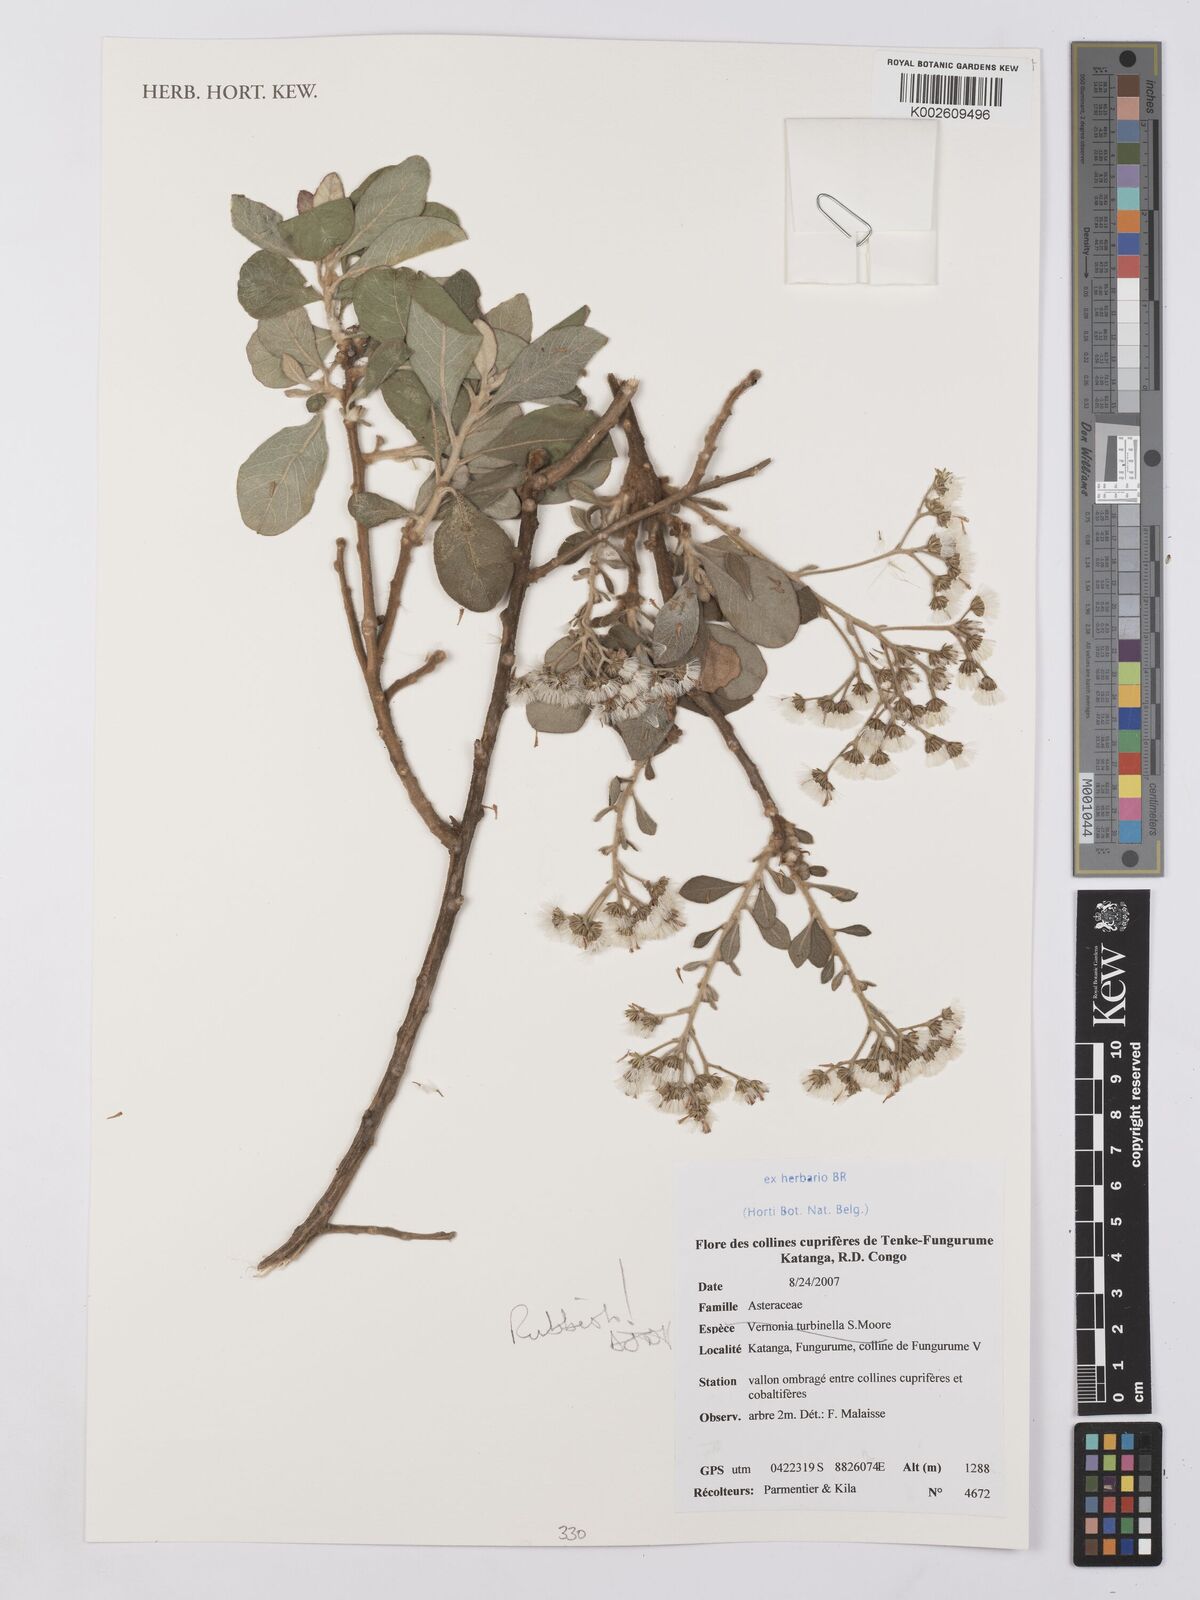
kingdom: Plantae
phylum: Tracheophyta
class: Magnoliopsida
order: Asterales
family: Asteraceae
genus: Vernonia
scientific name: Vernonia
